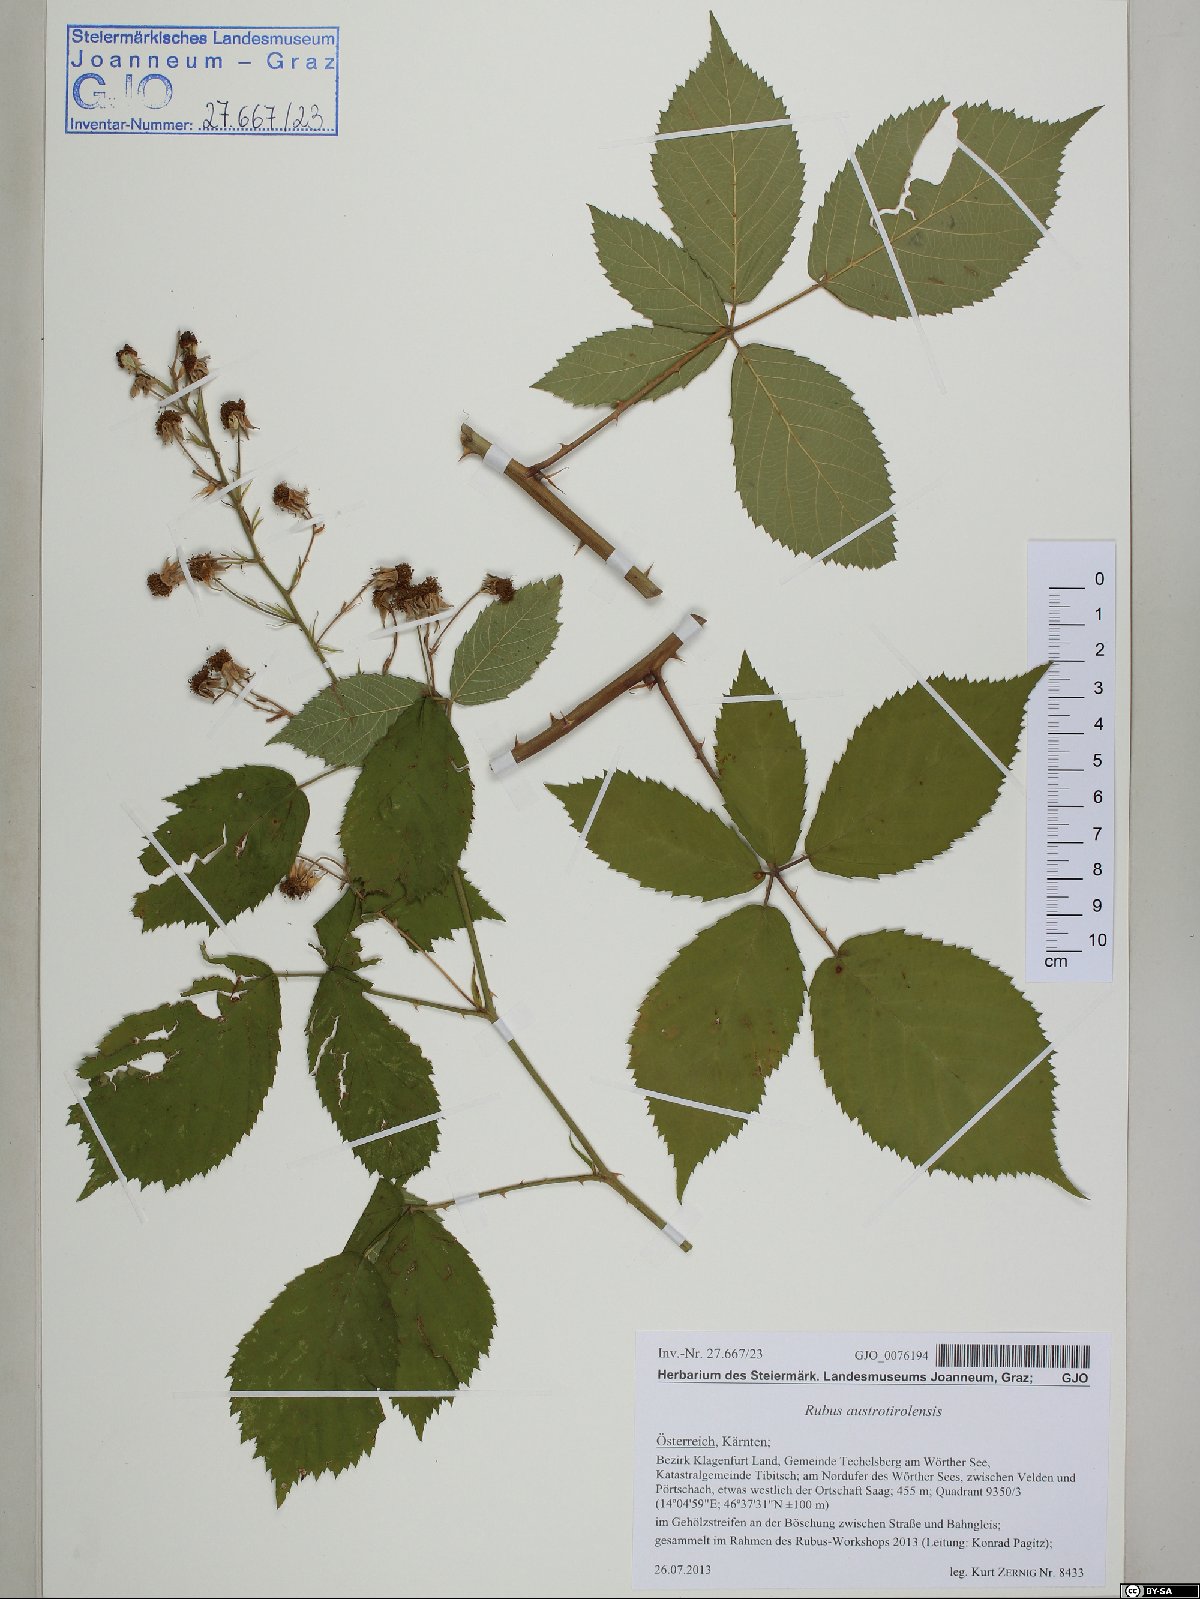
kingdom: Plantae
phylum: Tracheophyta
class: Magnoliopsida
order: Rosales
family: Rosaceae
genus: Rubus
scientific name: Rubus austrotiroliensis
